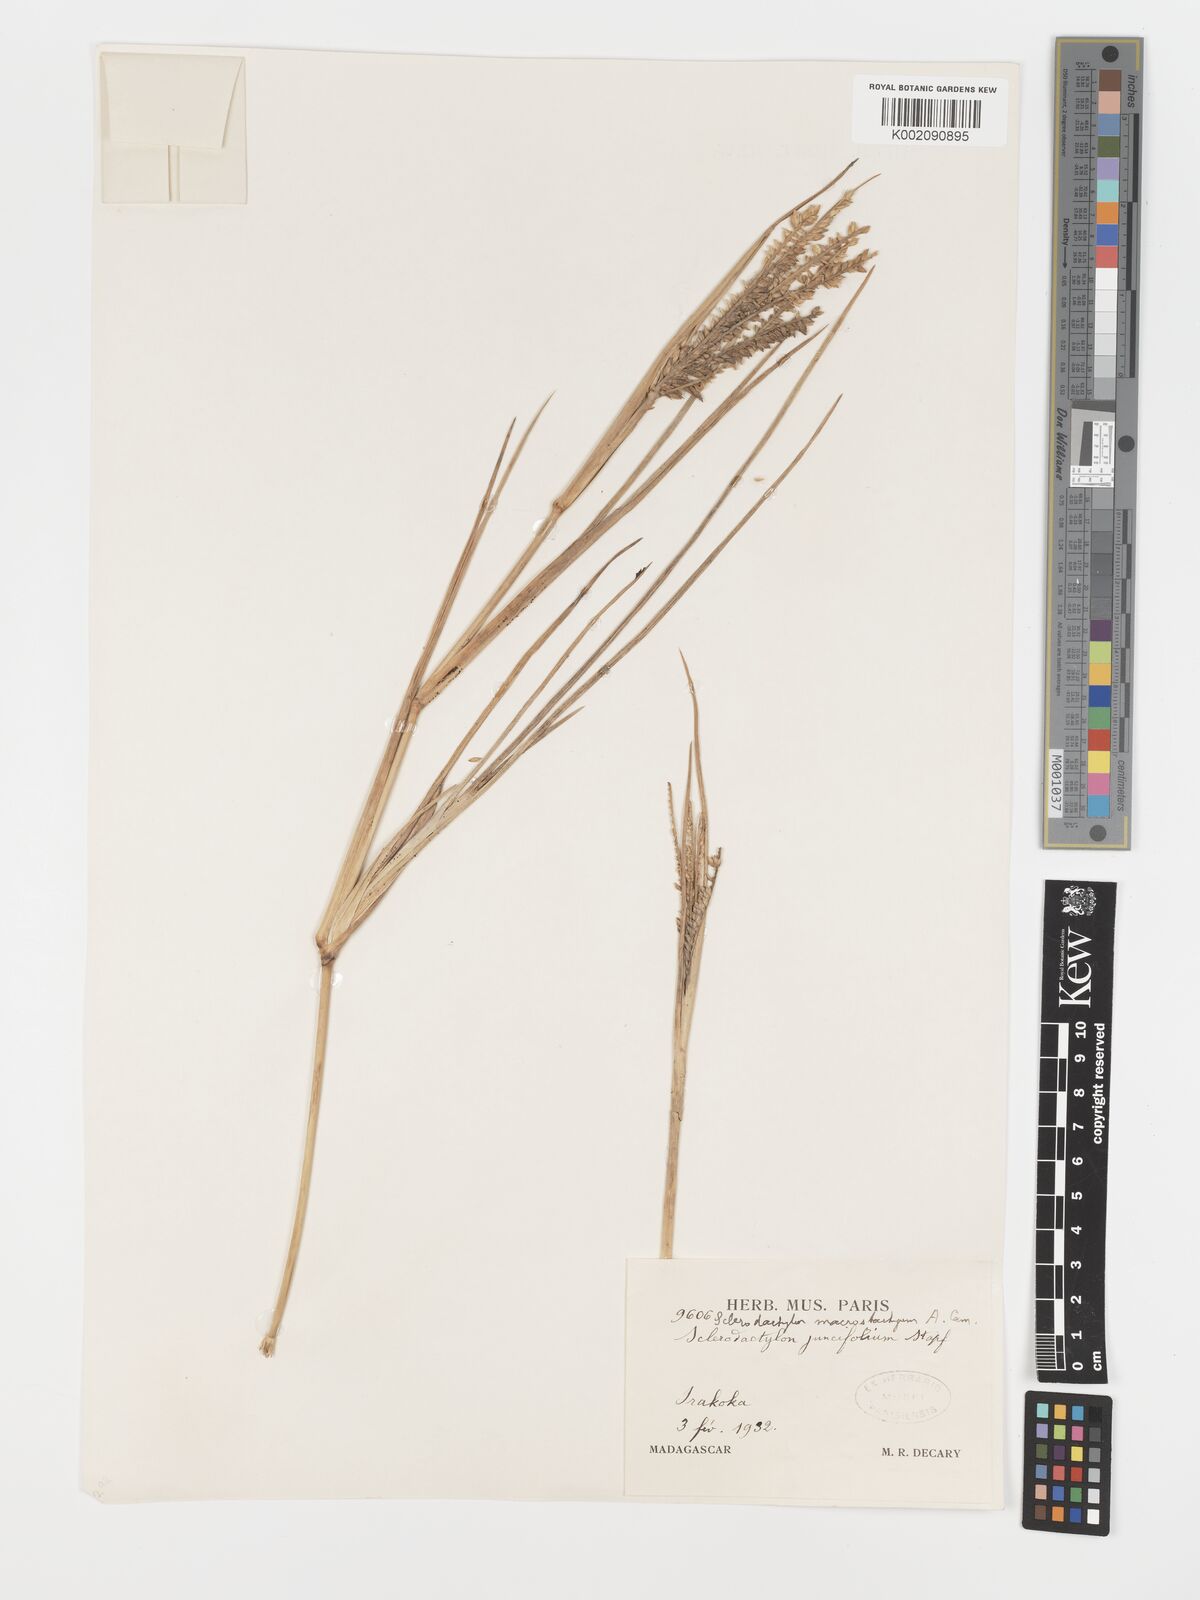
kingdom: Plantae
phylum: Tracheophyta
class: Liliopsida
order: Poales
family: Poaceae
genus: Sclerodactylon
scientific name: Sclerodactylon macrostachyum
